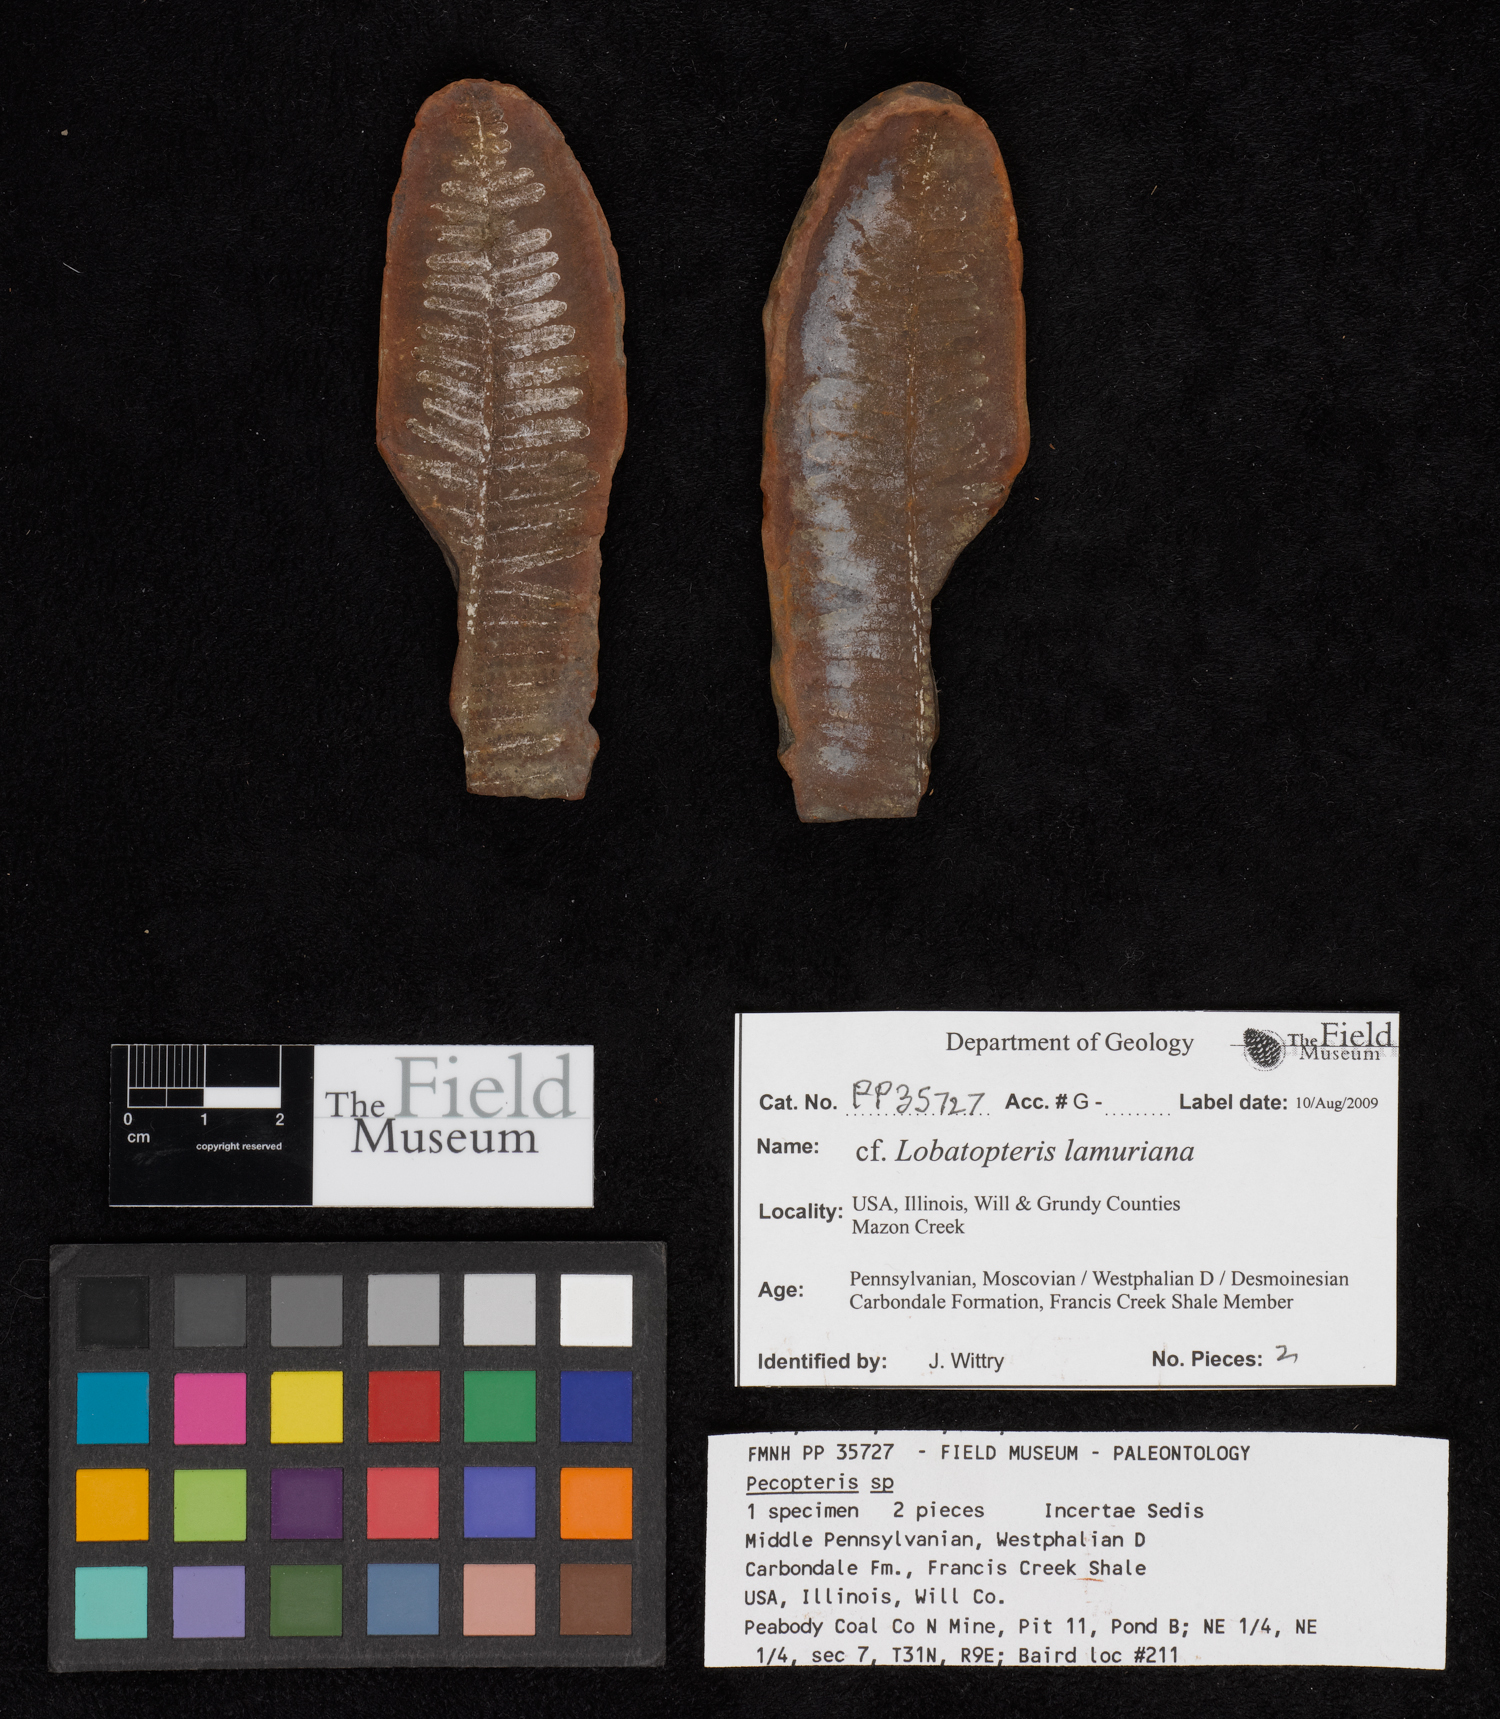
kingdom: Plantae
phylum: Tracheophyta
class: Polypodiopsida
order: Marattiales
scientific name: Marattiales
